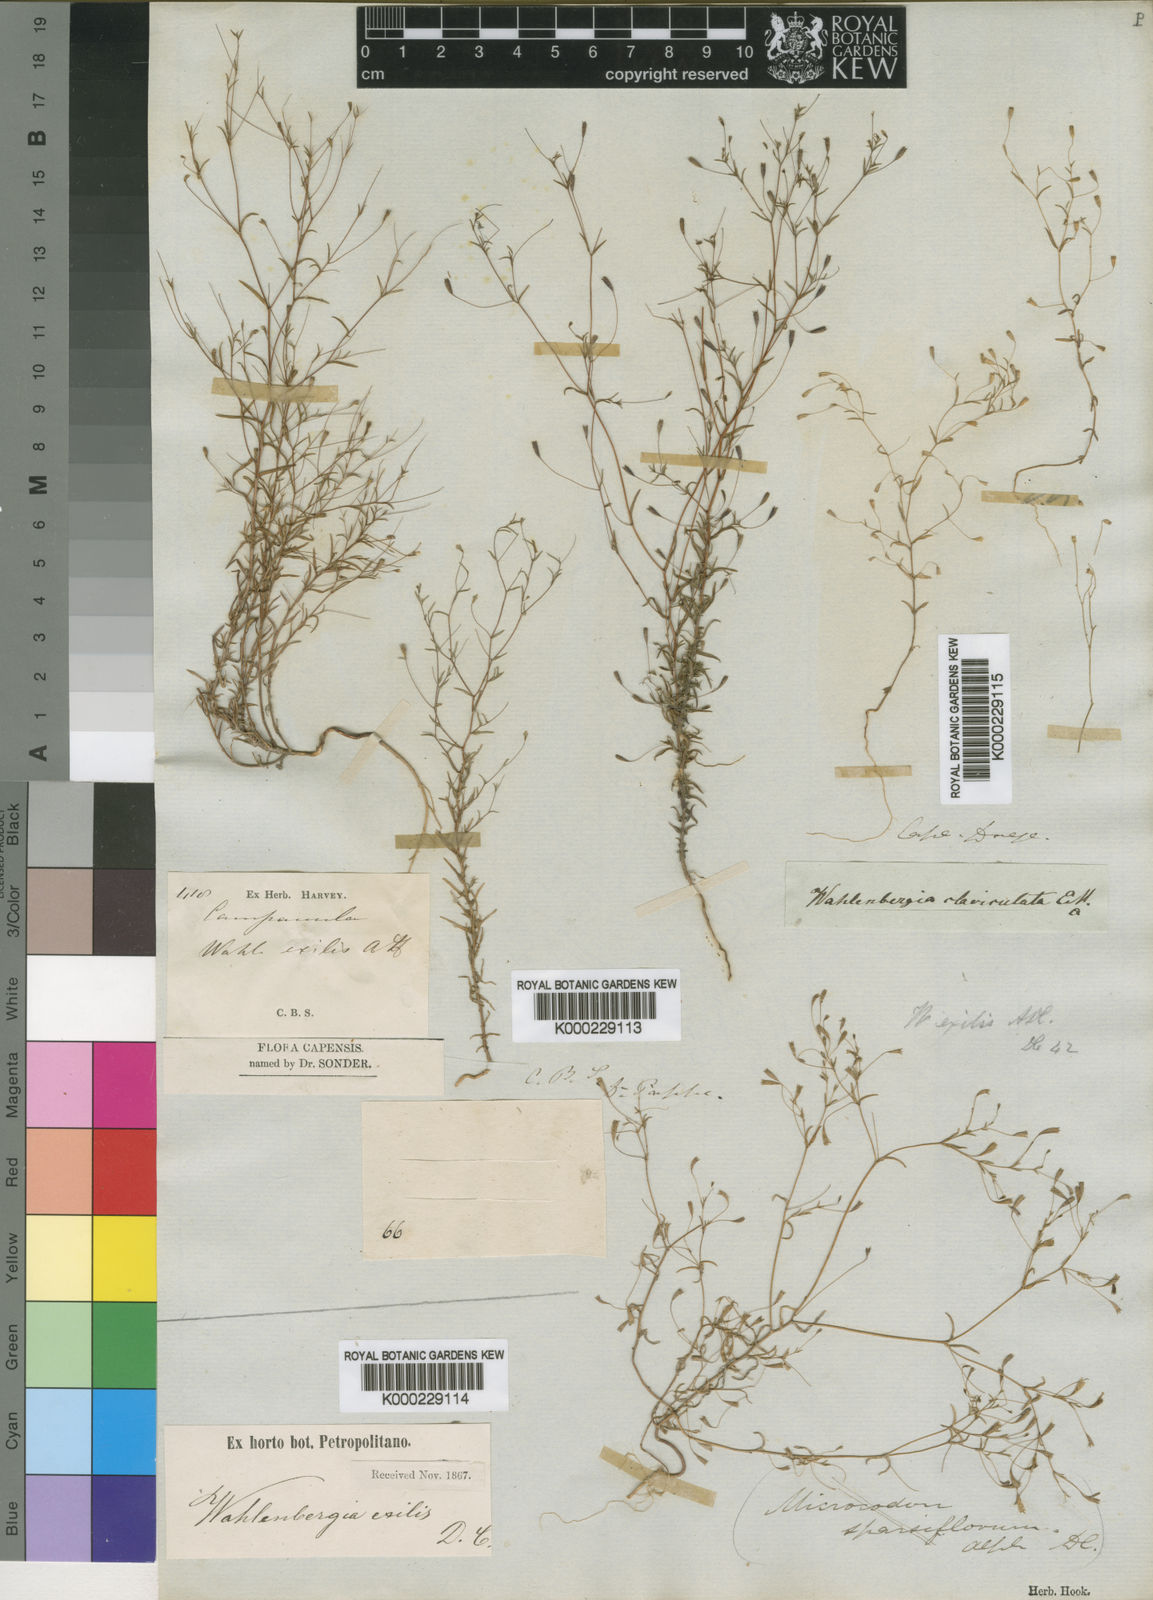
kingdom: Plantae
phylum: Tracheophyta
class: Magnoliopsida
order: Asterales
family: Campanulaceae
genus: Wahlenbergia
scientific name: Wahlenbergia exilis
